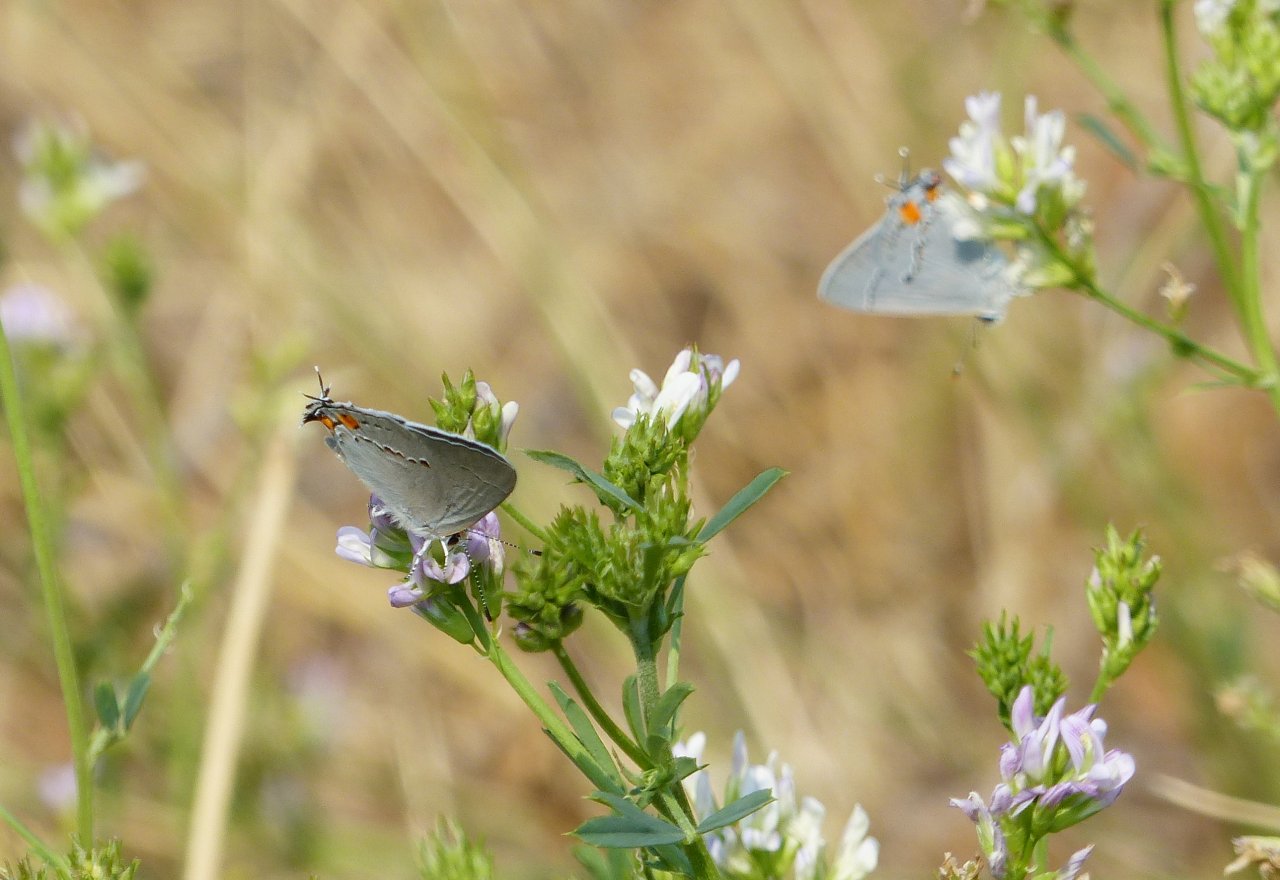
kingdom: Animalia
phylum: Arthropoda
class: Insecta
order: Lepidoptera
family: Lycaenidae
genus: Strymon
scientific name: Strymon melinus
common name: Gray Hairstreak
